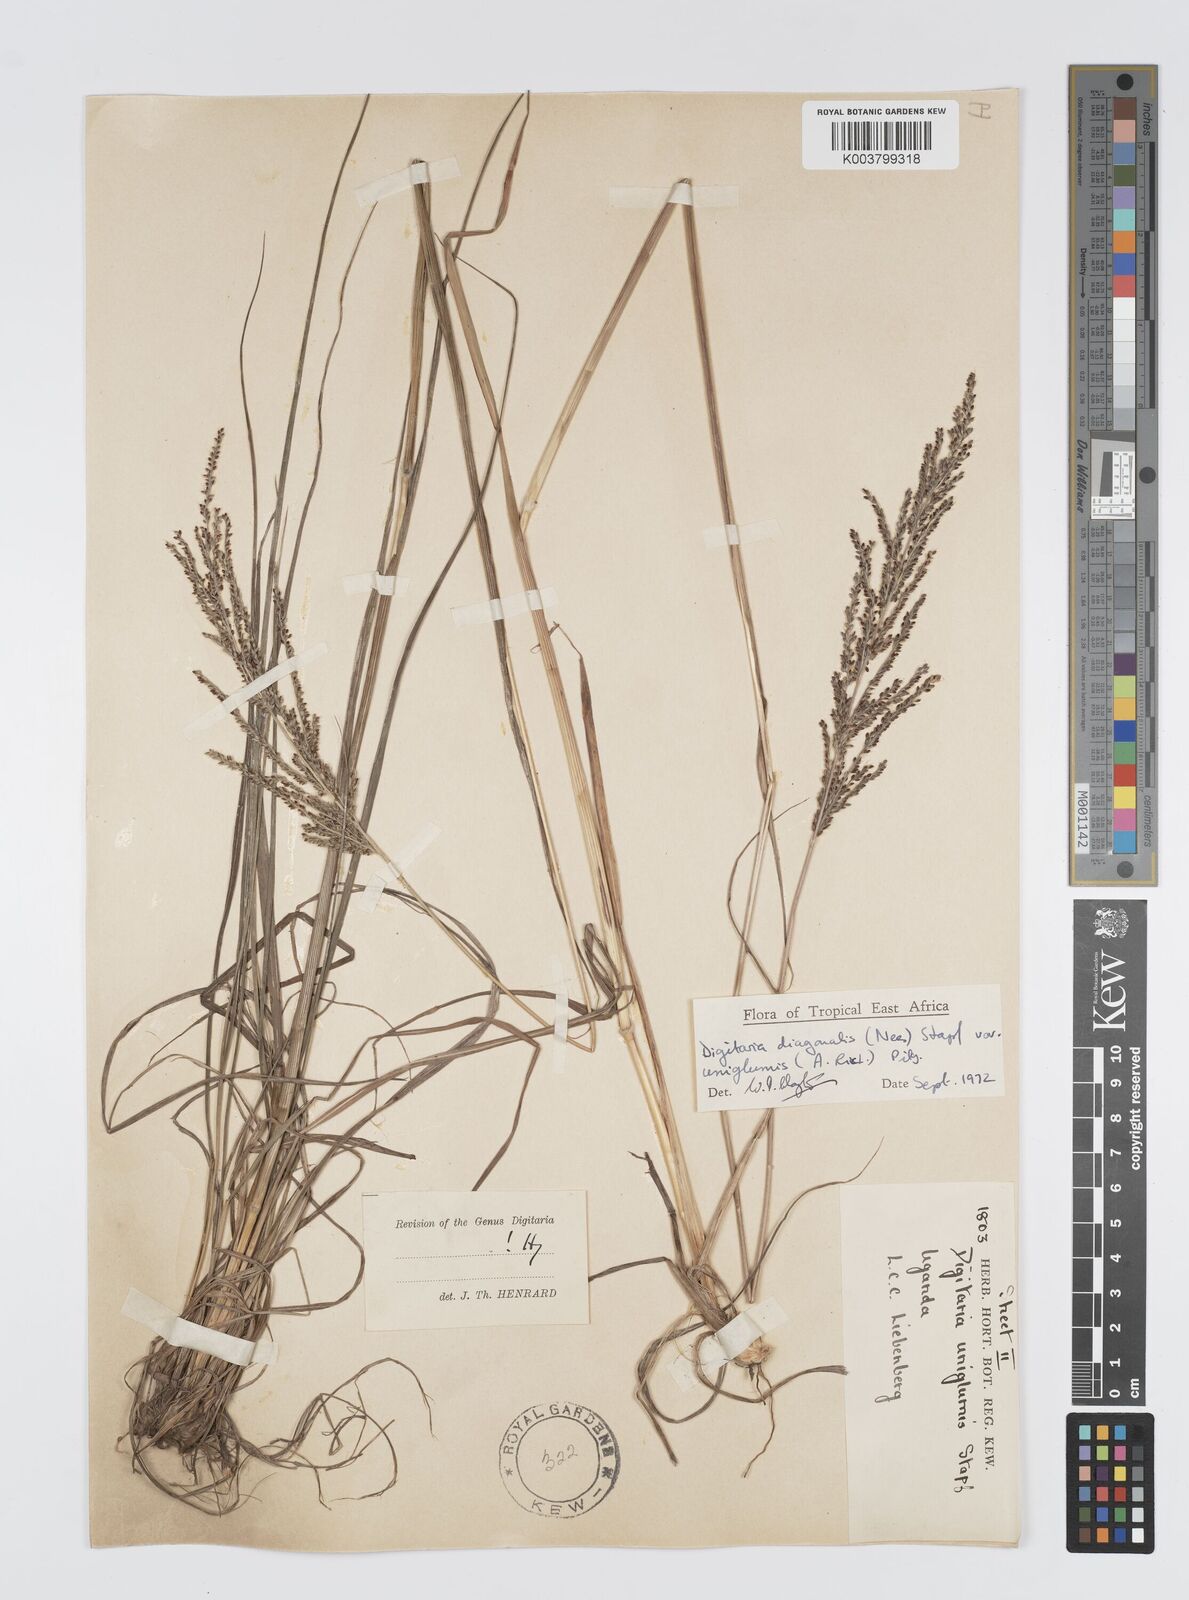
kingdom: Plantae
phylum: Tracheophyta
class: Liliopsida
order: Poales
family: Poaceae
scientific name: Poaceae
